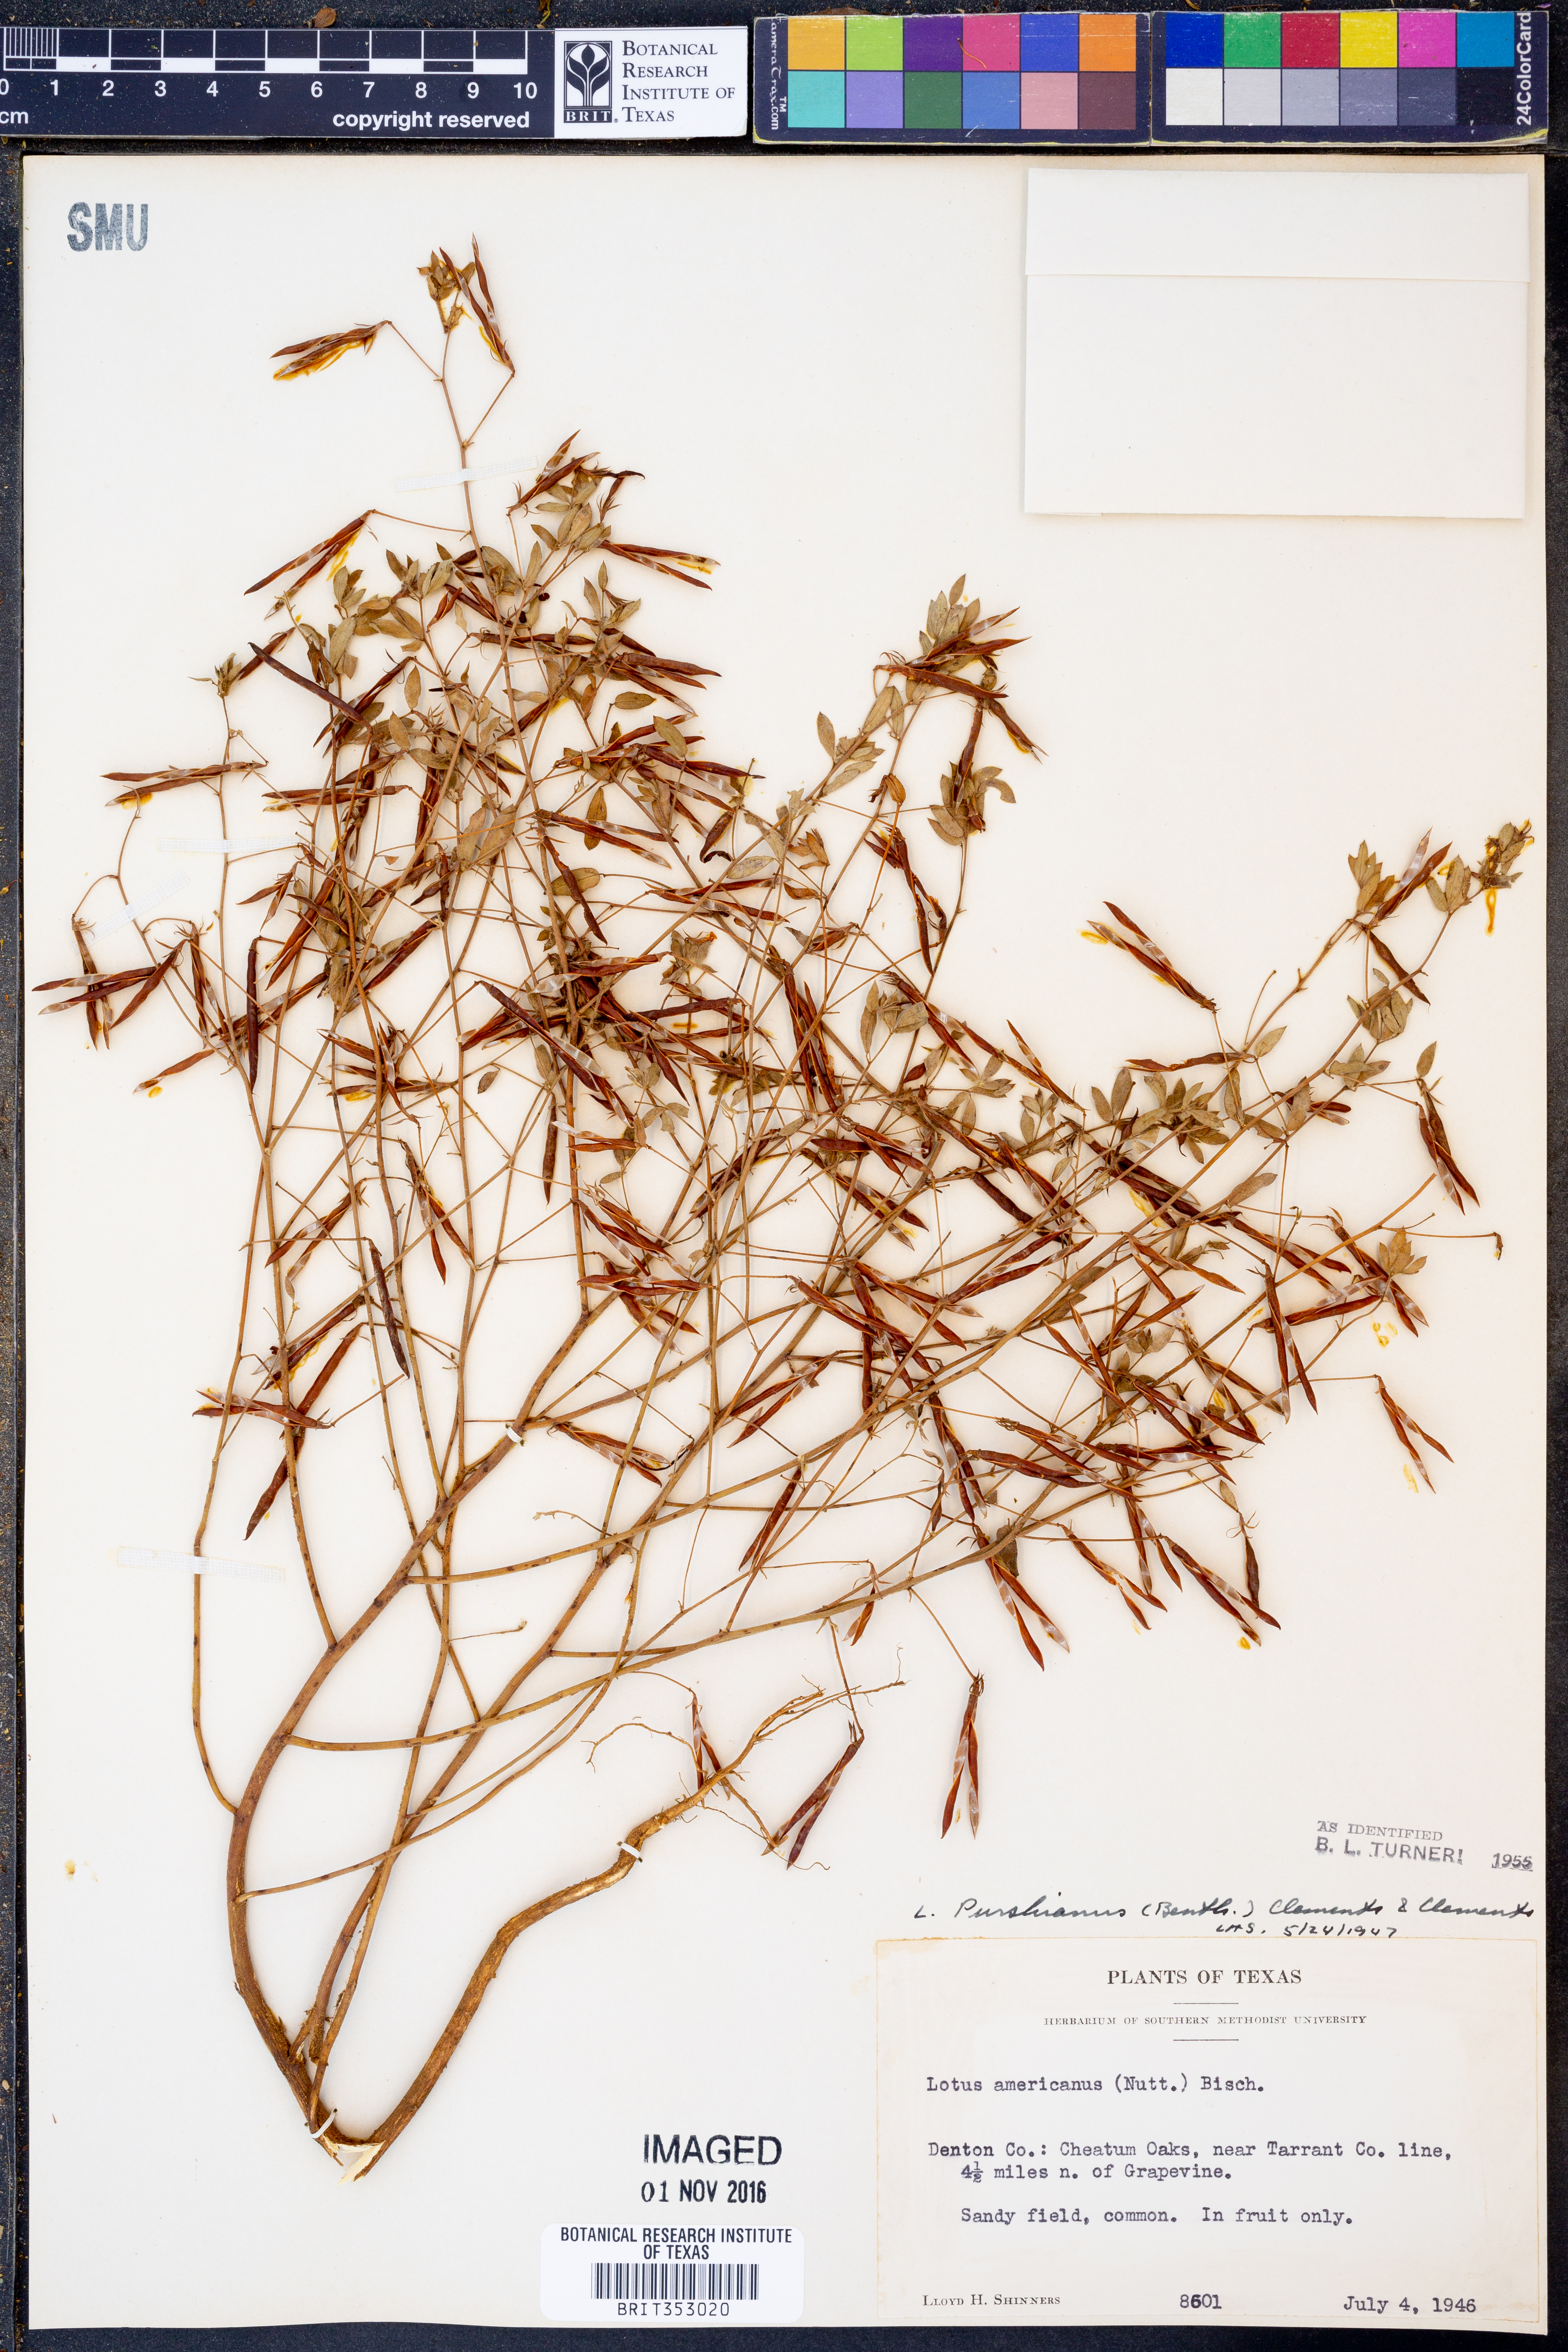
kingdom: Plantae
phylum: Tracheophyta
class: Magnoliopsida
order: Fabales
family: Fabaceae
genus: Acmispon
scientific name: Acmispon americanus
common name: American bird's-foot trefoil
